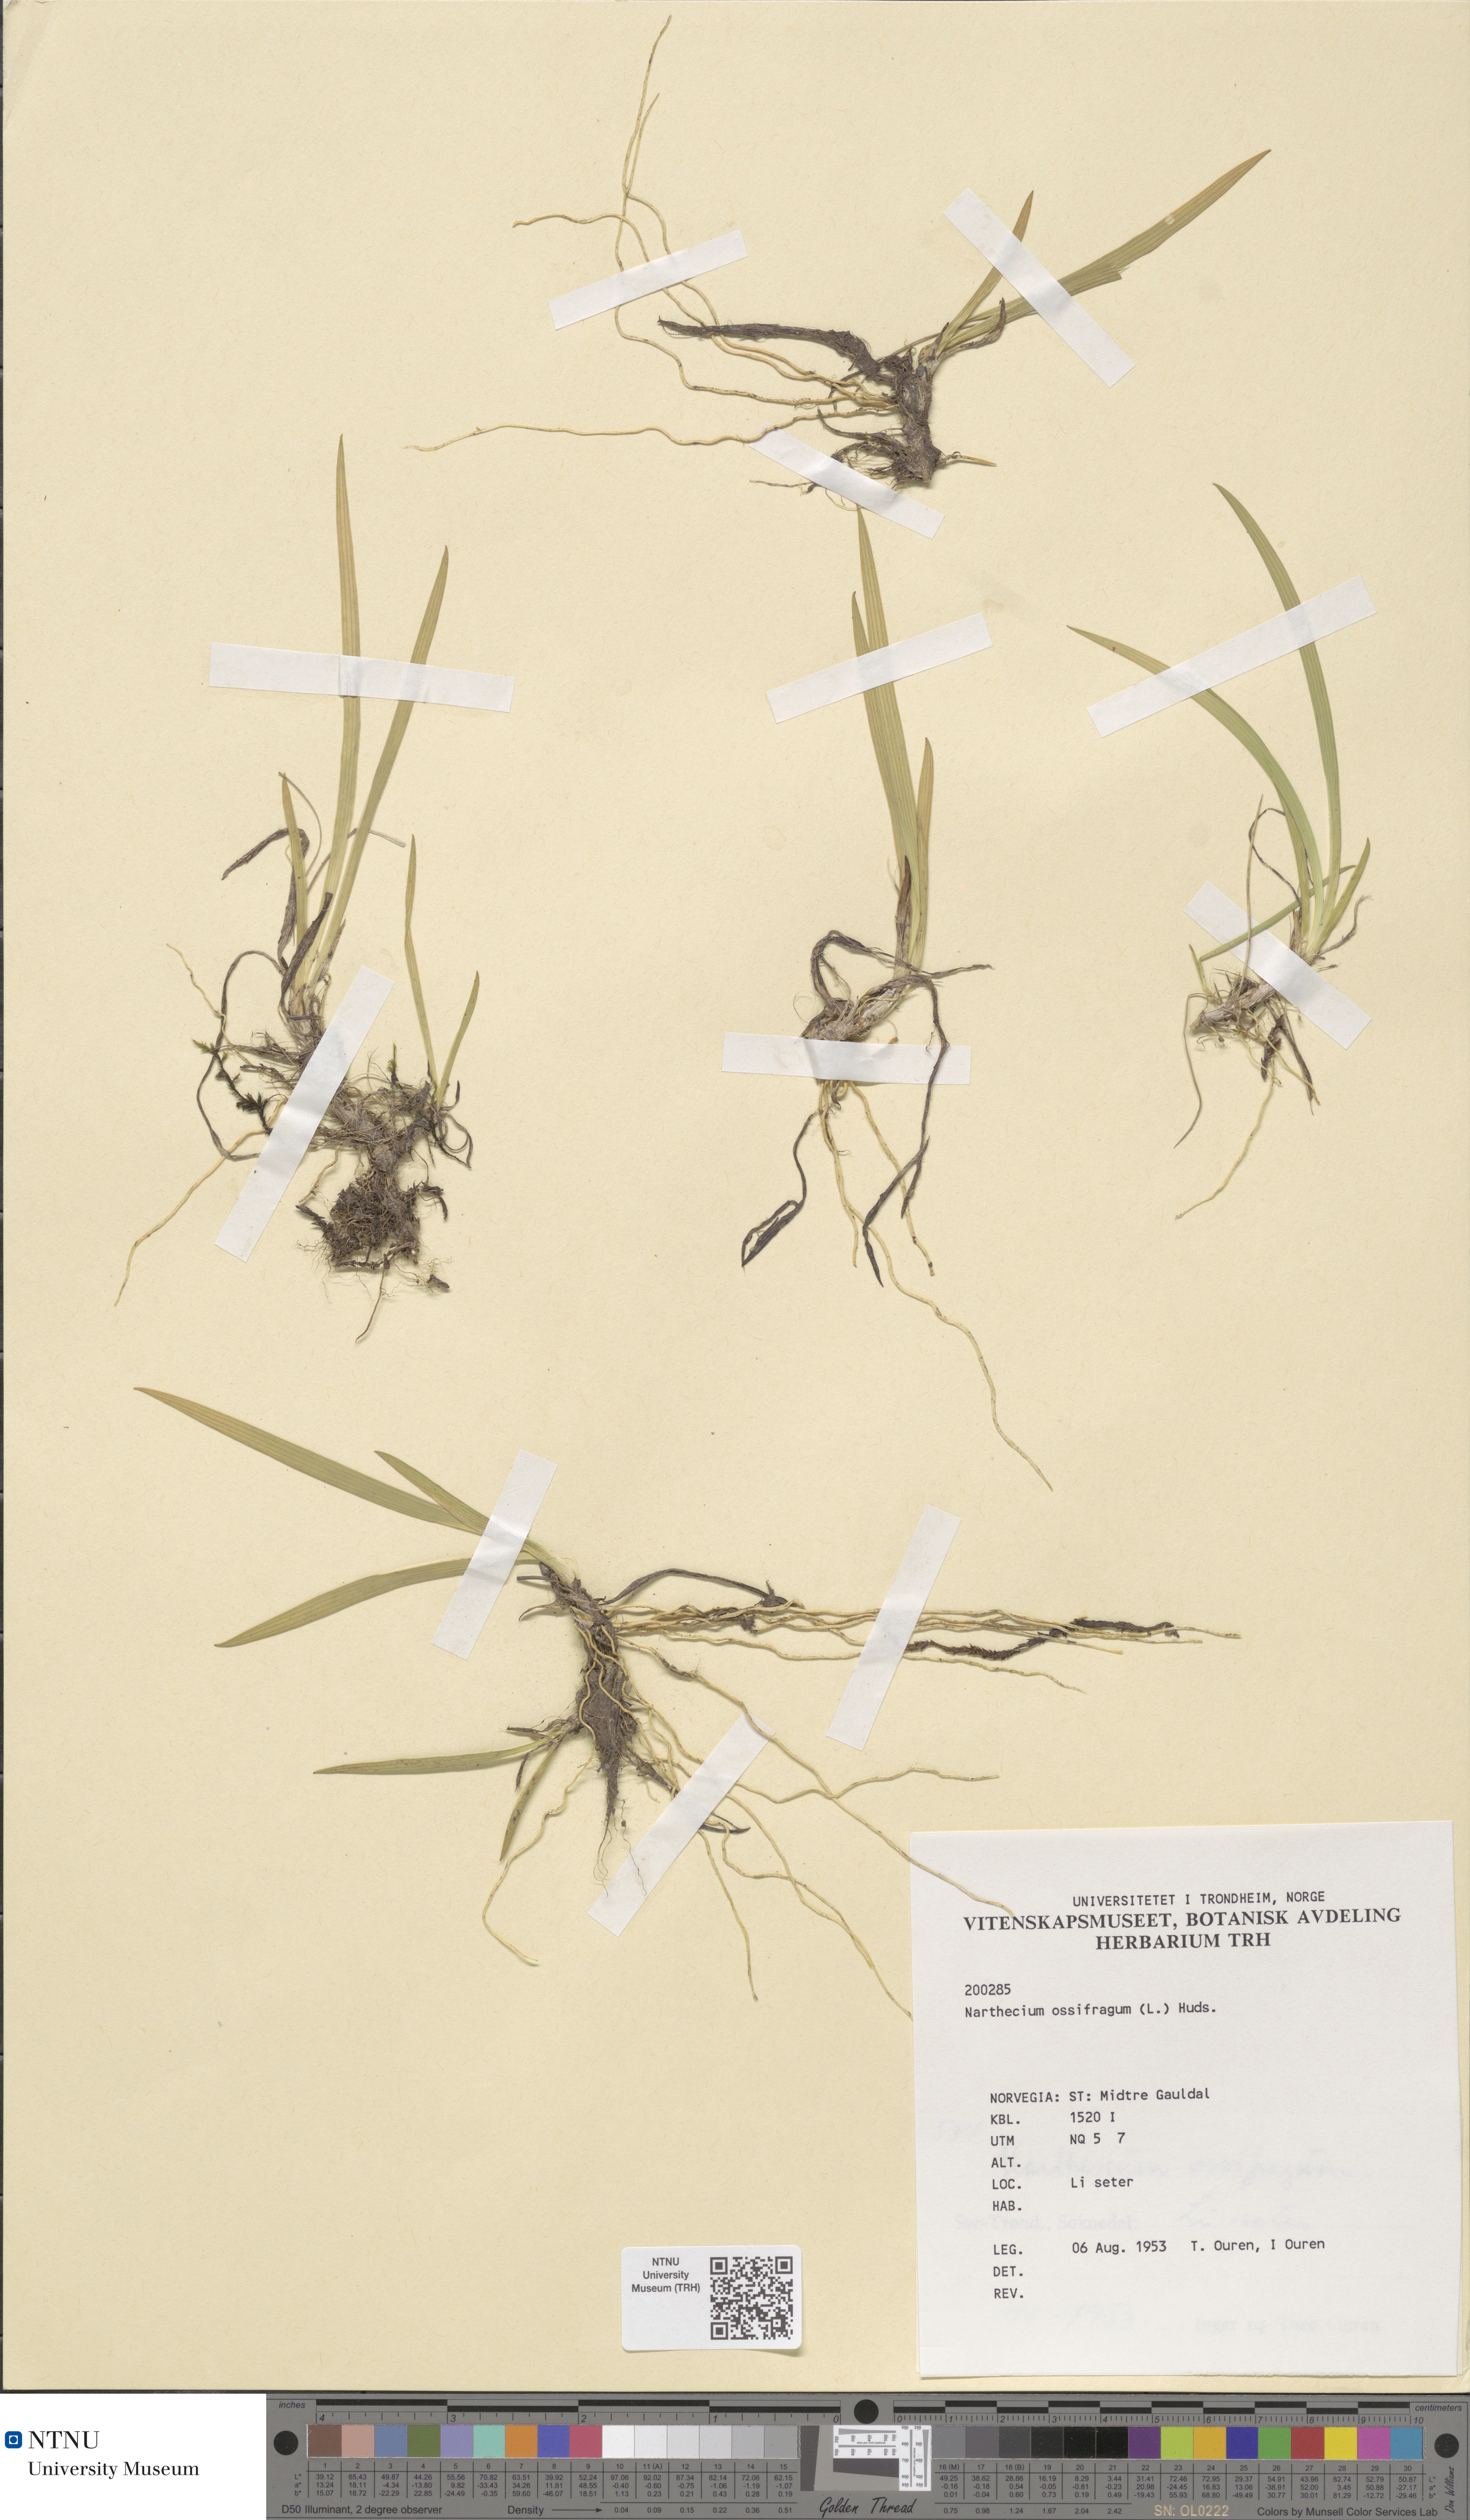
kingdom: Plantae
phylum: Tracheophyta
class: Liliopsida
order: Dioscoreales
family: Nartheciaceae
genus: Narthecium
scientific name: Narthecium ossifragum
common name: Bog asphodel
